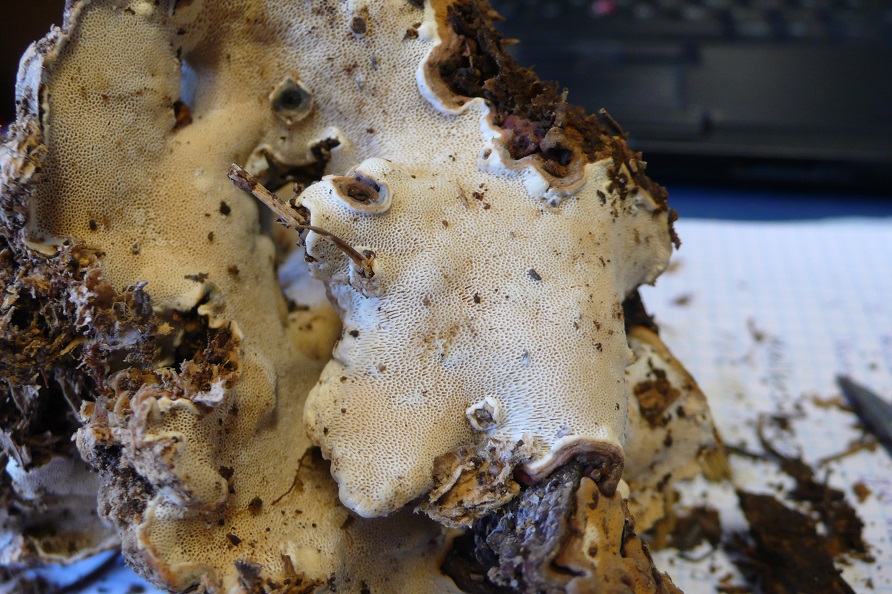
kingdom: Fungi
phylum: Basidiomycota
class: Agaricomycetes
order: Russulales
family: Bondarzewiaceae
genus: Heterobasidion
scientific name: Heterobasidion annosum
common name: almindelig rodfordærver
